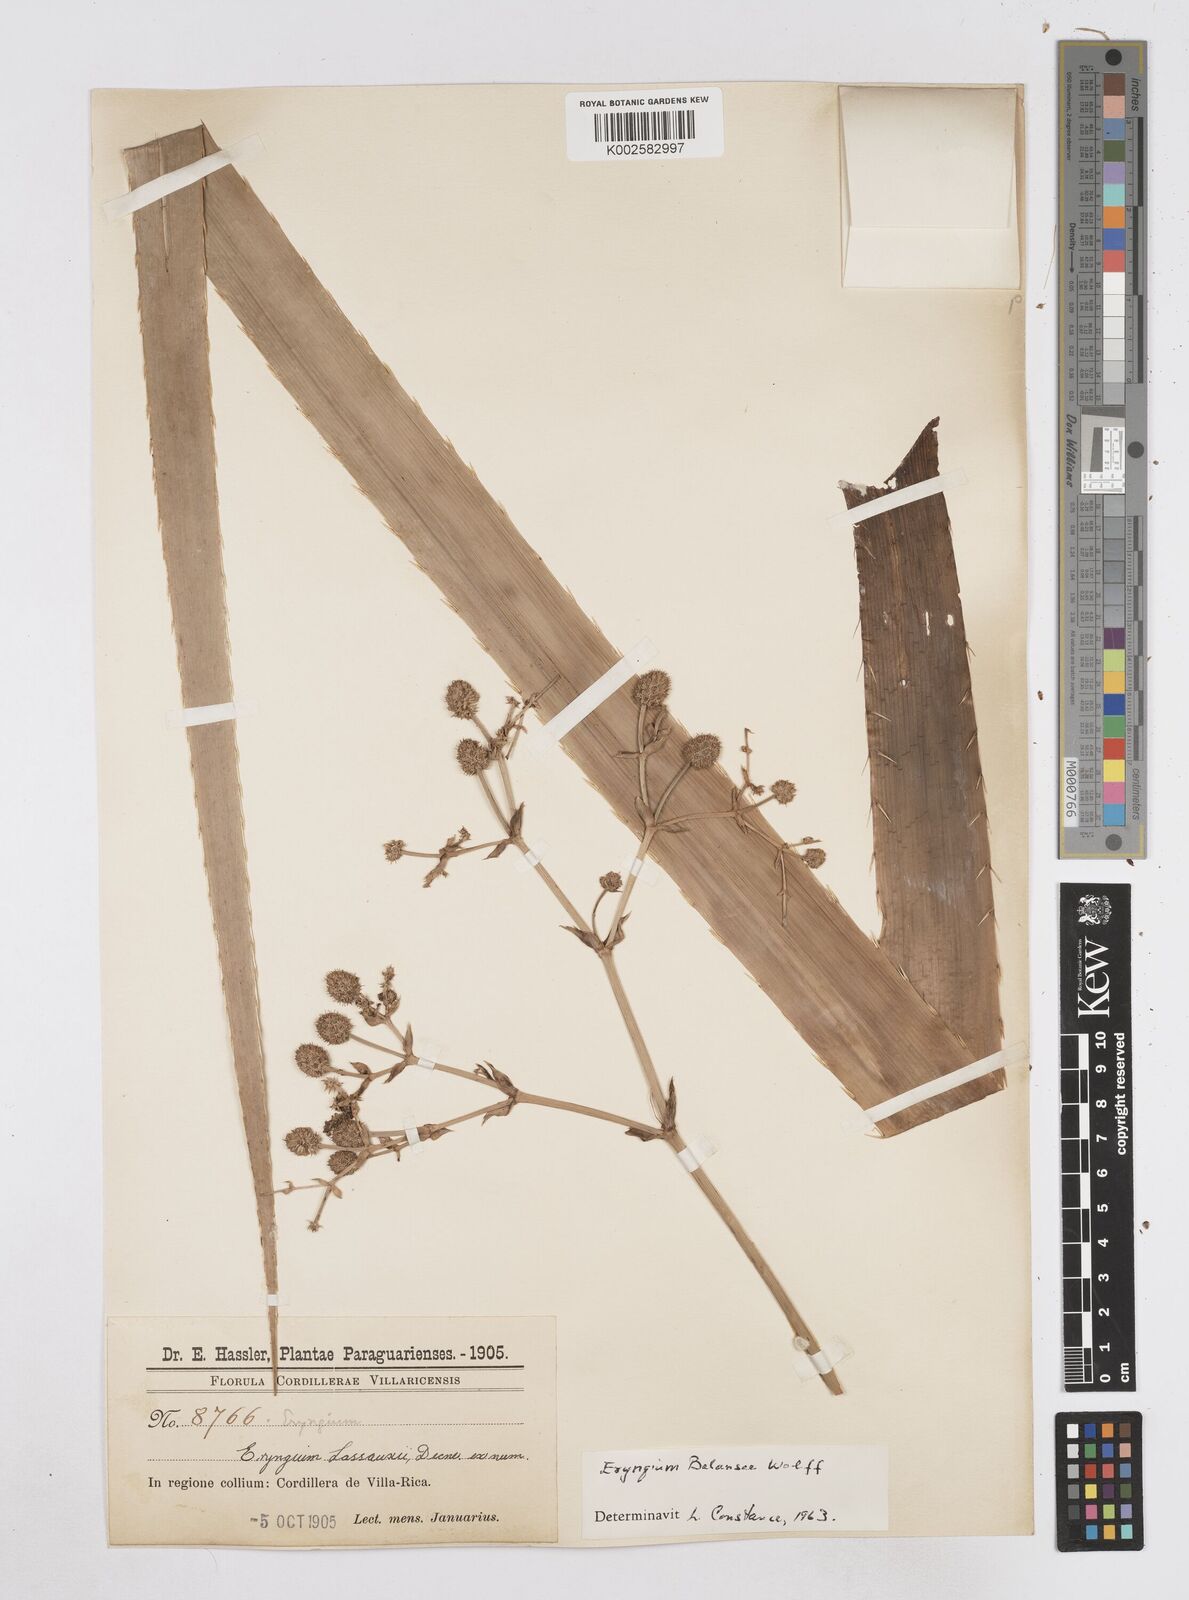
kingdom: Plantae
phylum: Tracheophyta
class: Magnoliopsida
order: Apiales
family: Apiaceae
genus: Eryngium
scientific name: Eryngium balansae
